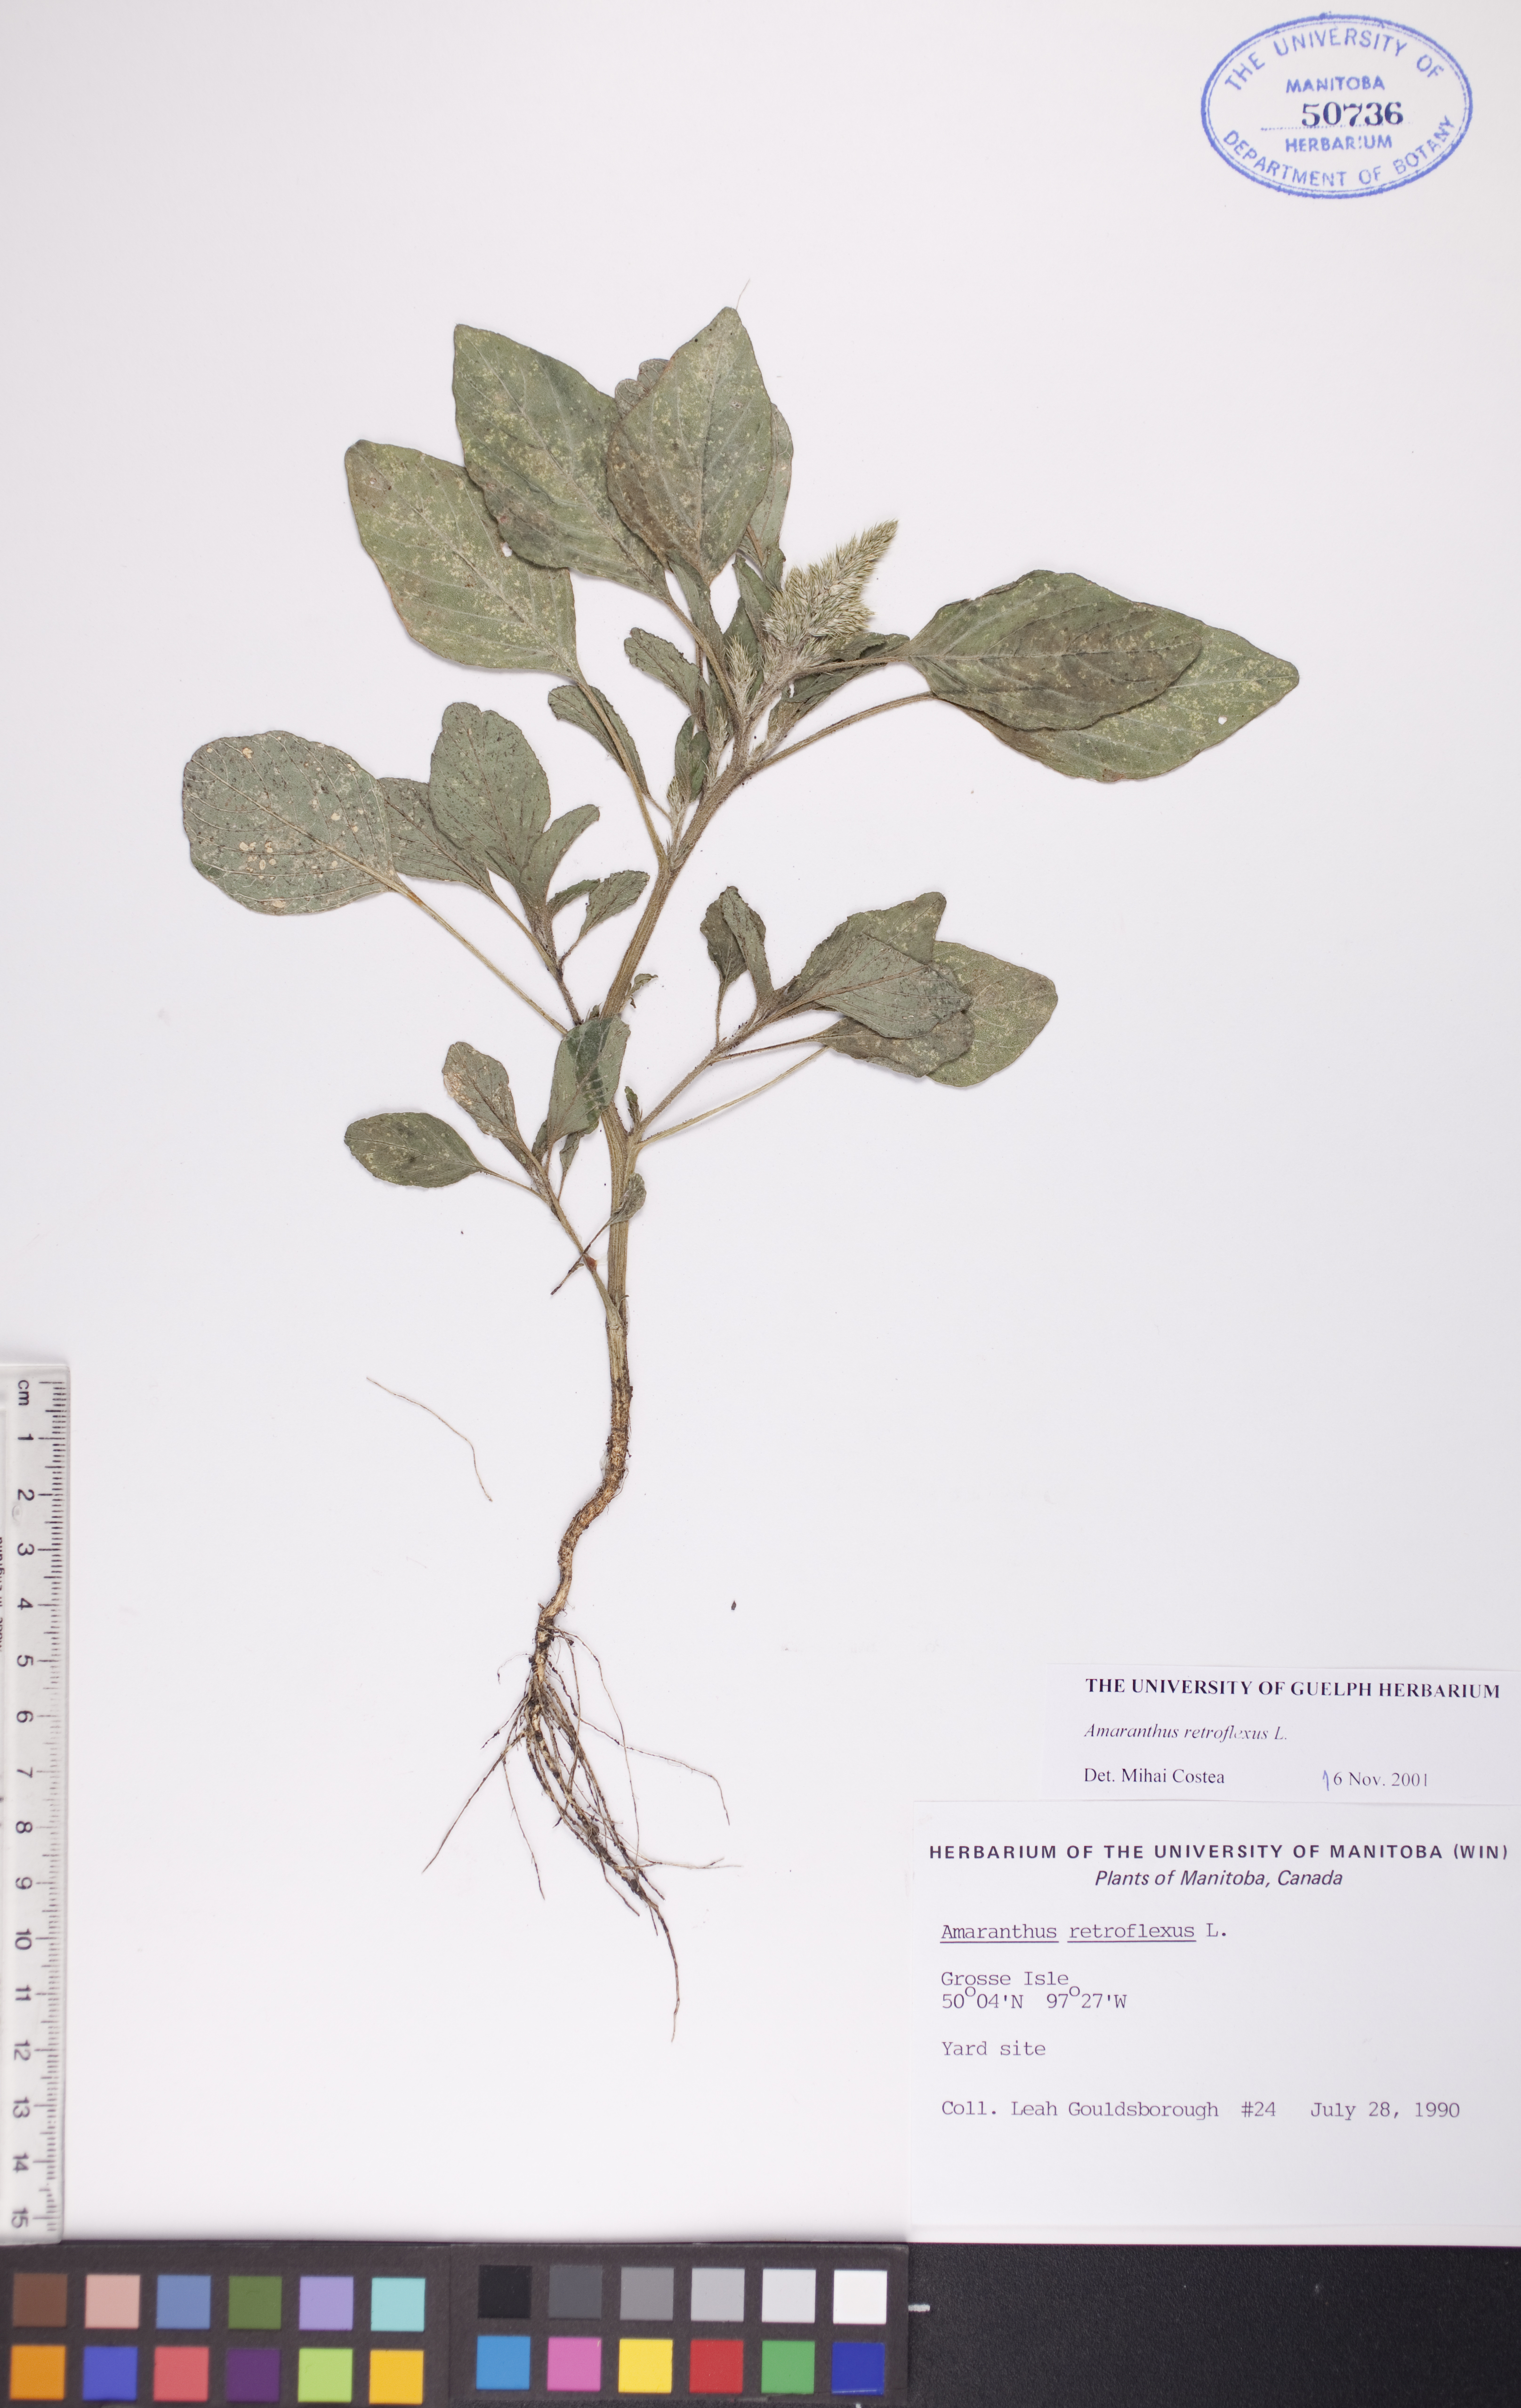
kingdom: Plantae
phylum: Tracheophyta
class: Magnoliopsida
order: Caryophyllales
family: Amaranthaceae
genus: Amaranthus
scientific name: Amaranthus retroflexus
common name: Redroot amaranth
